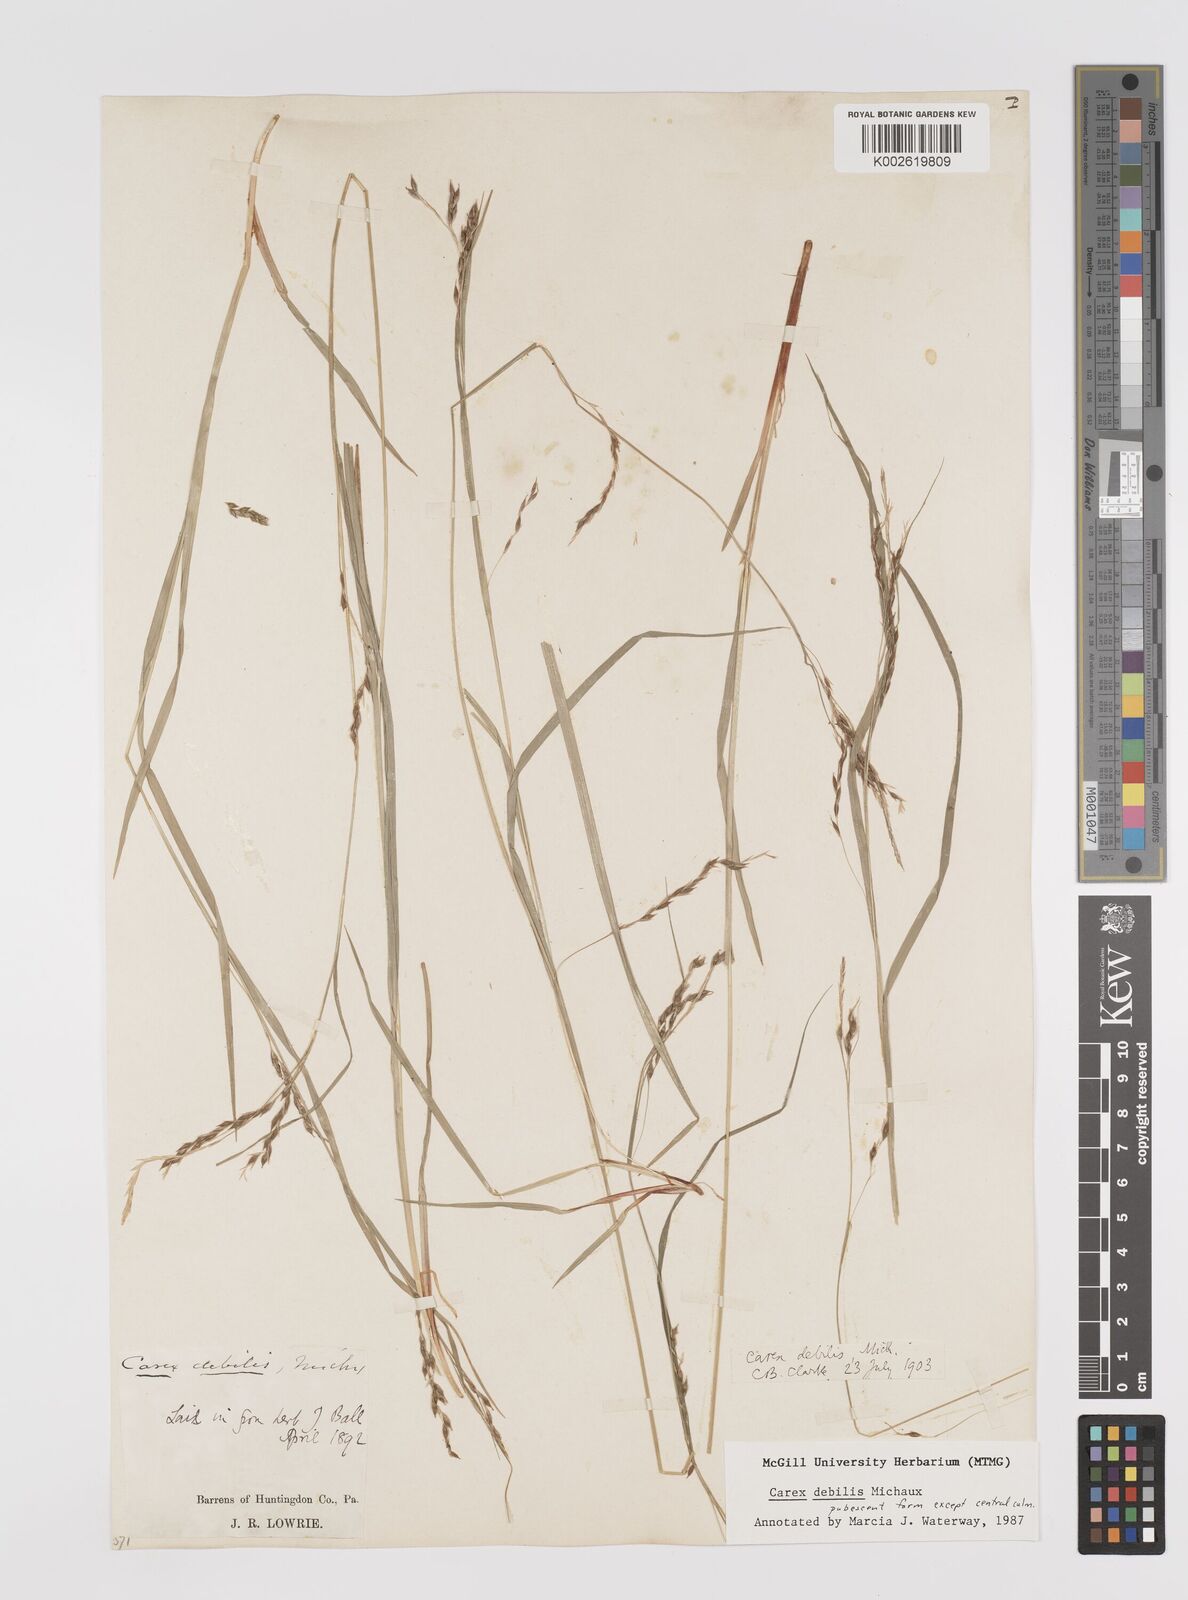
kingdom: Plantae
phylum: Tracheophyta
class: Liliopsida
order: Poales
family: Cyperaceae
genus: Carex
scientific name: Carex debilis
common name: White-edge sedge
